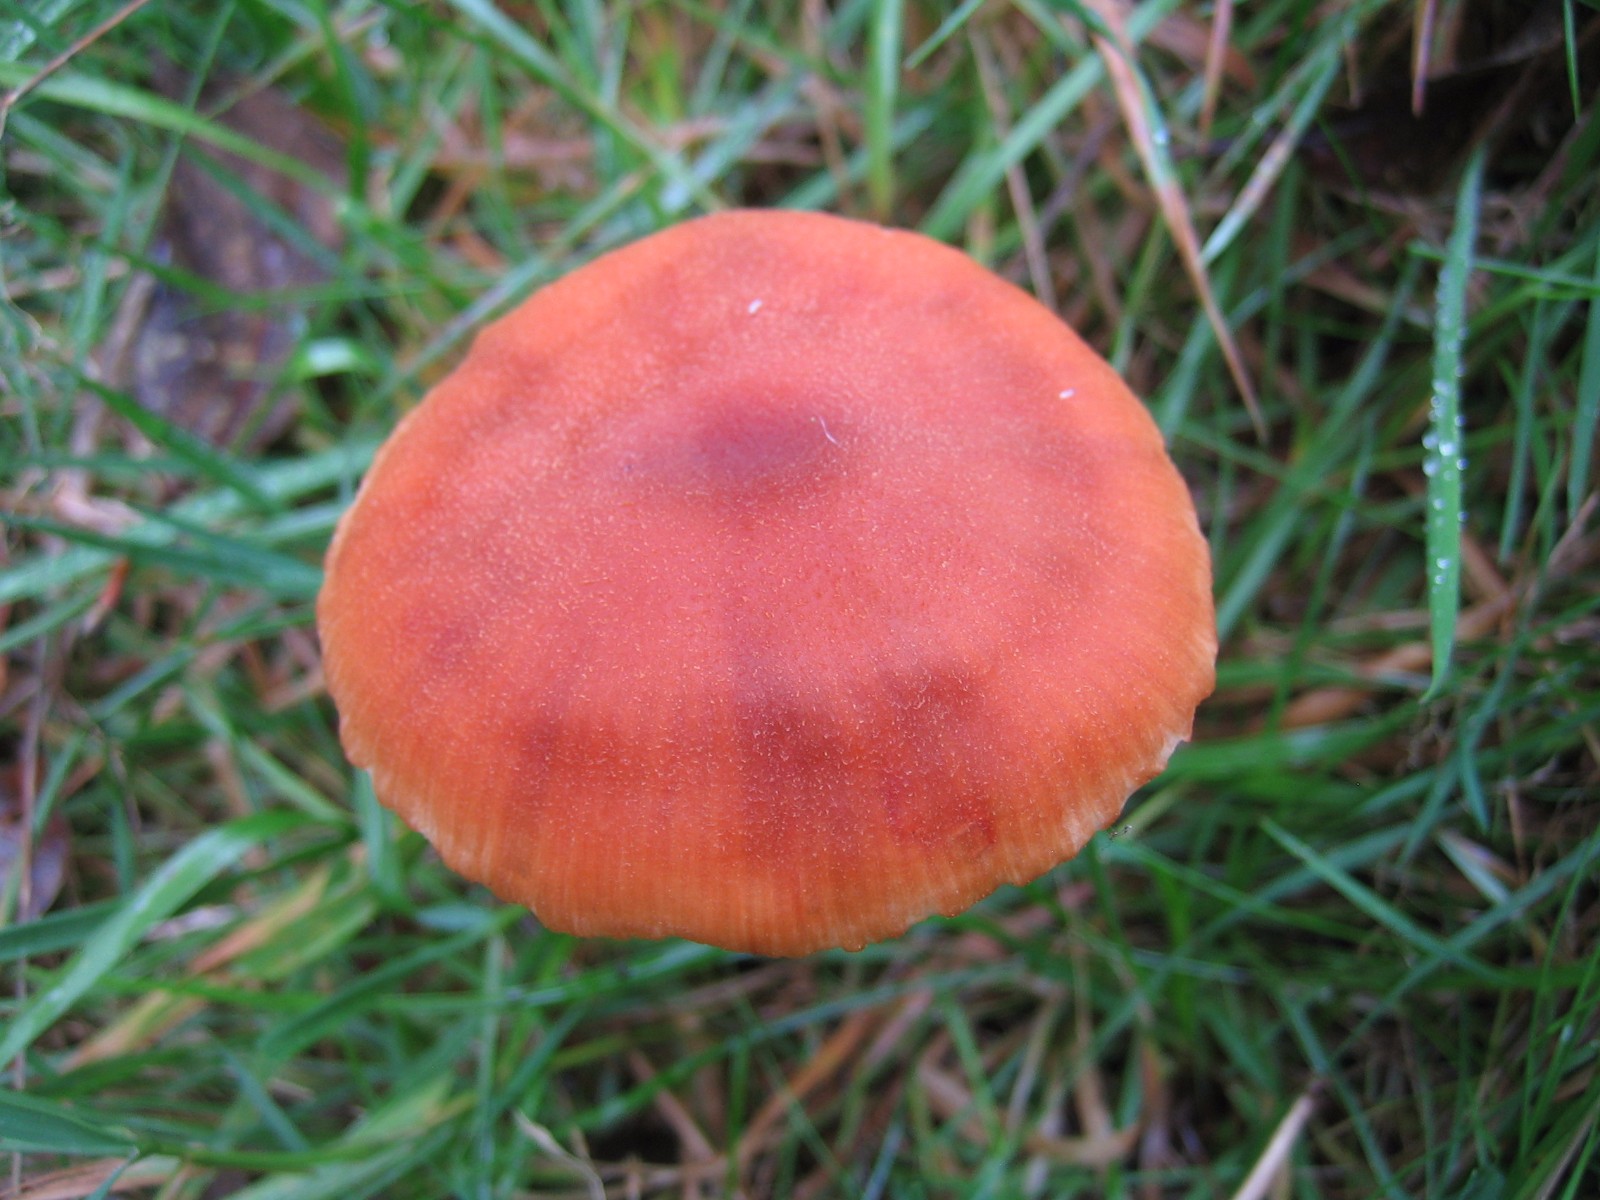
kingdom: Fungi
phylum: Basidiomycota
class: Agaricomycetes
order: Agaricales
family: Hydnangiaceae
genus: Laccaria
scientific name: Laccaria proxima
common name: stor ametysthat
